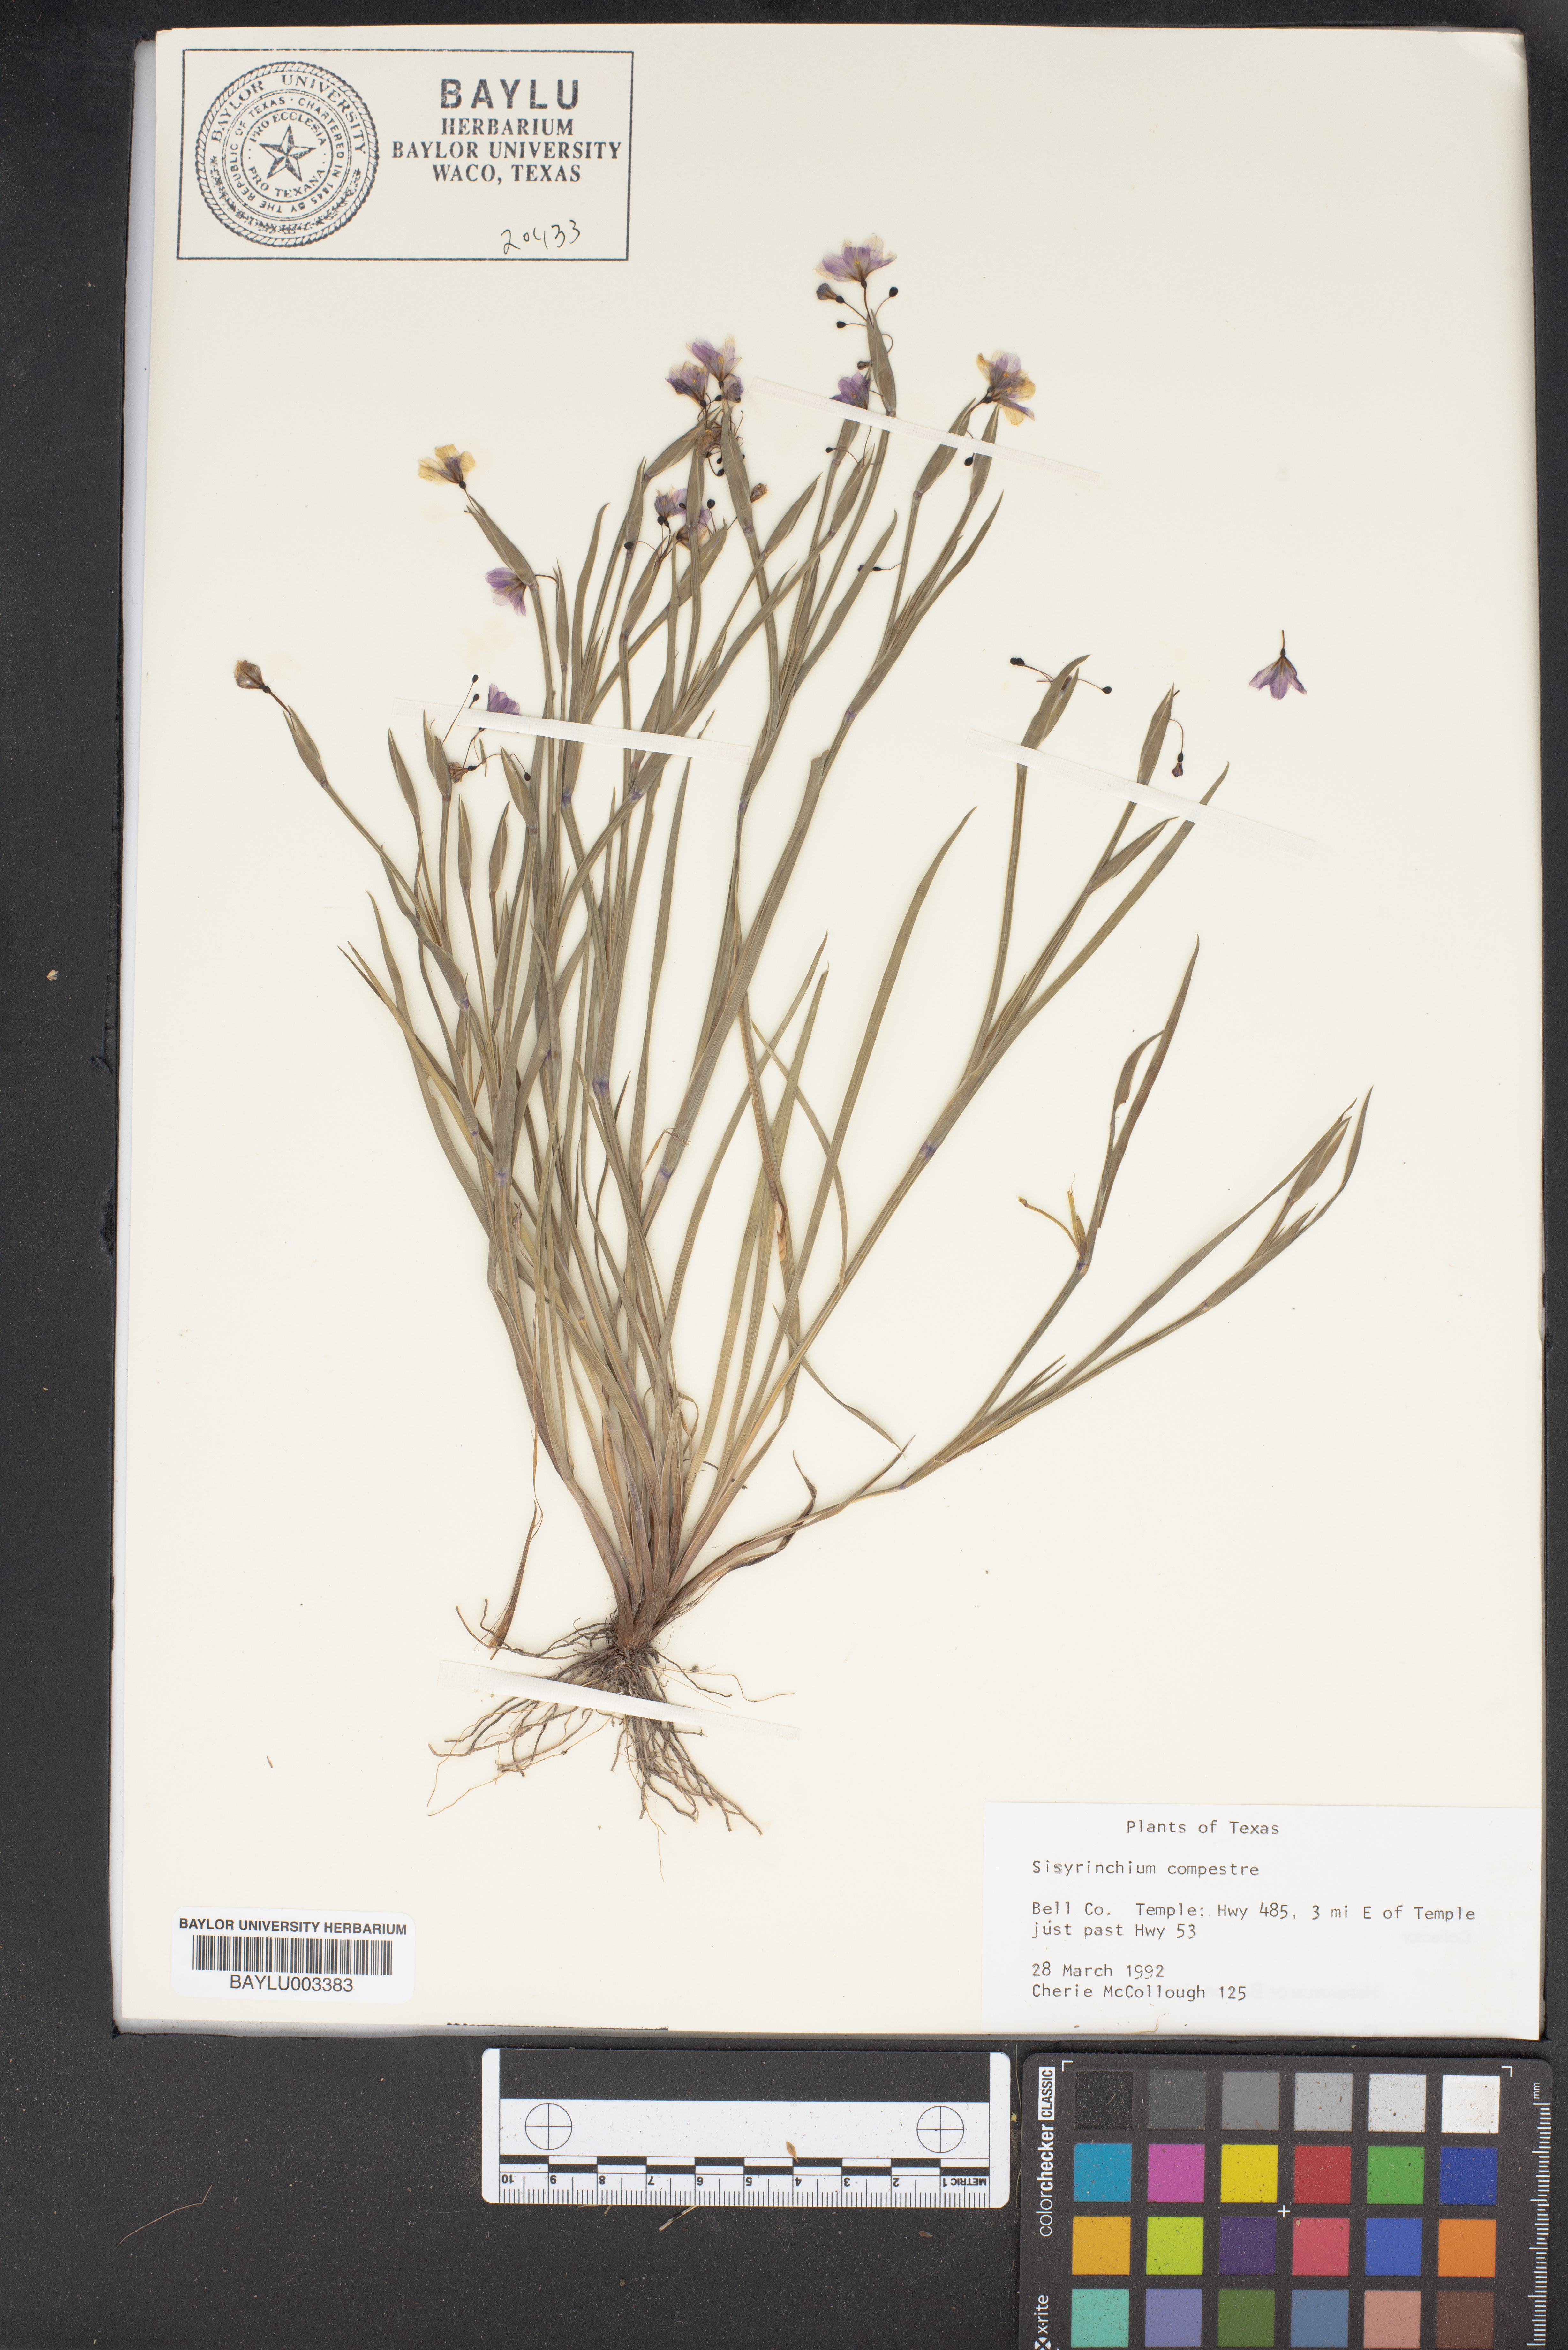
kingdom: Plantae
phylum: Tracheophyta
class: Liliopsida
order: Asparagales
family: Iridaceae
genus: Sisyrinchium
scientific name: Sisyrinchium campestre
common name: Prairie blue-eyed-grass
